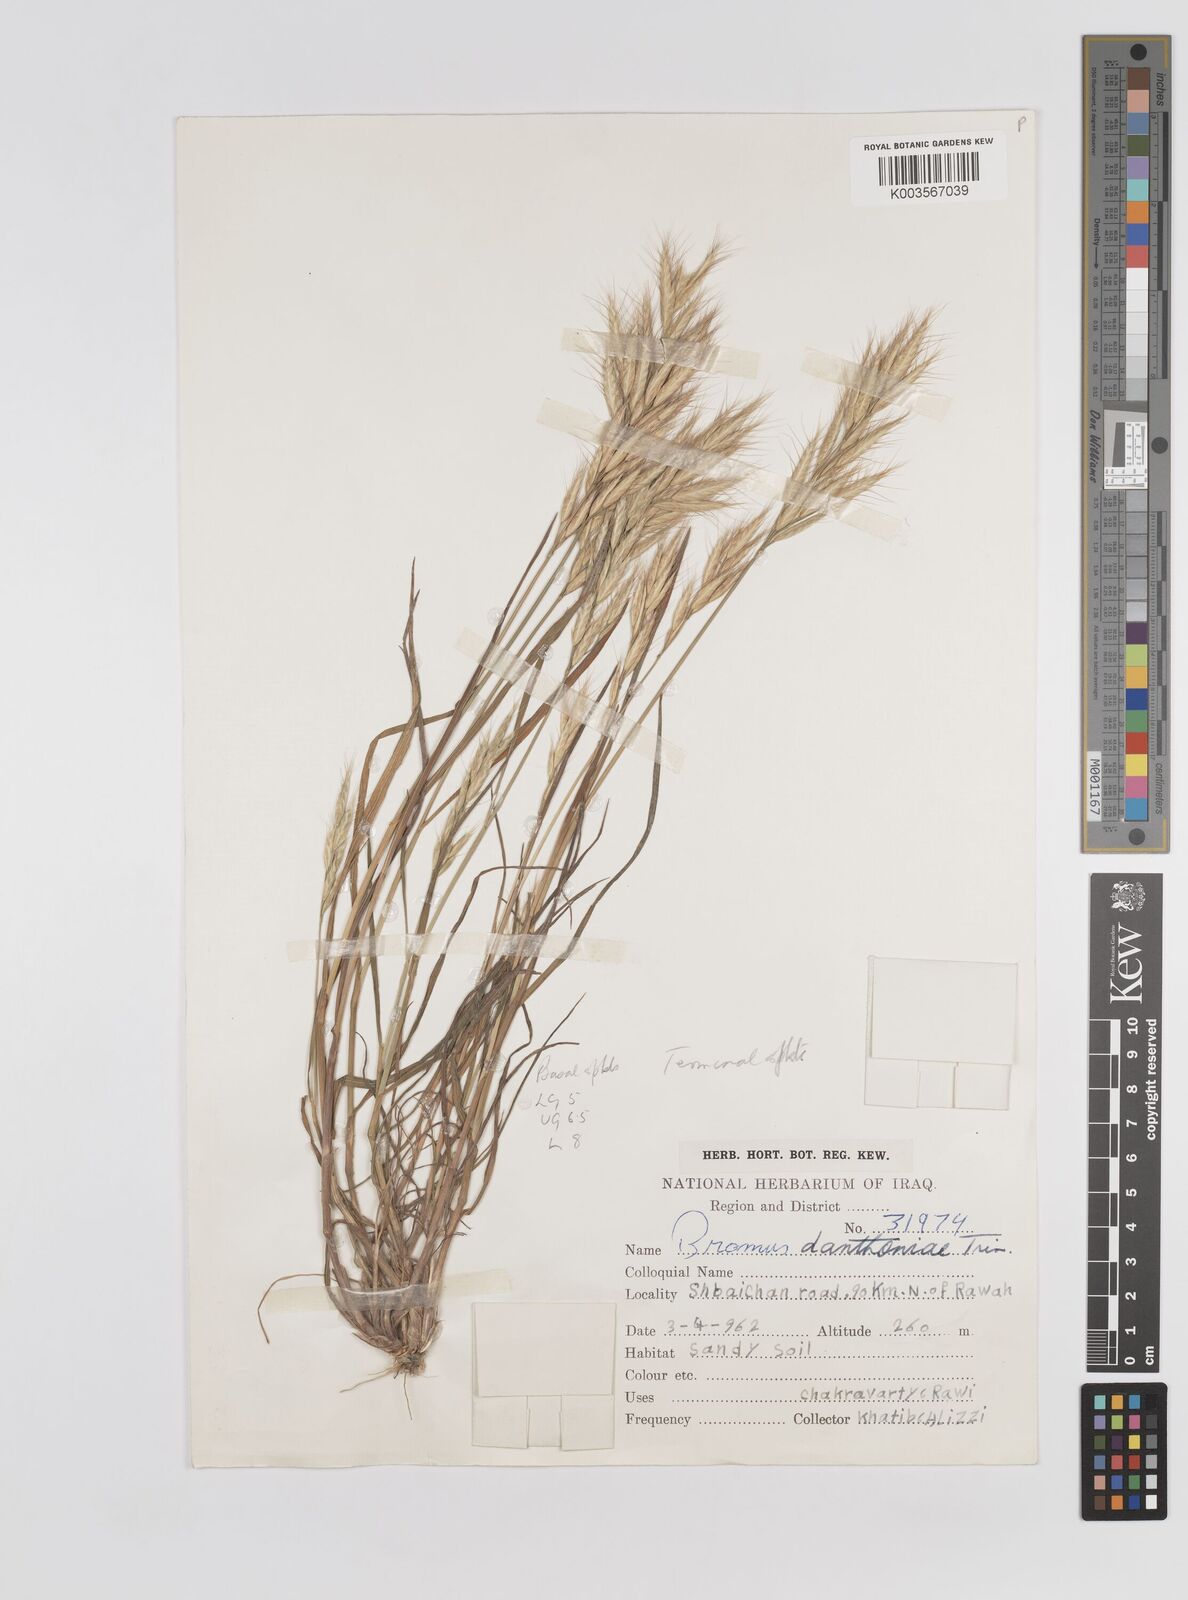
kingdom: Plantae
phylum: Tracheophyta
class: Liliopsida
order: Poales
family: Poaceae
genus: Bromus
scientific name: Bromus danthoniae
